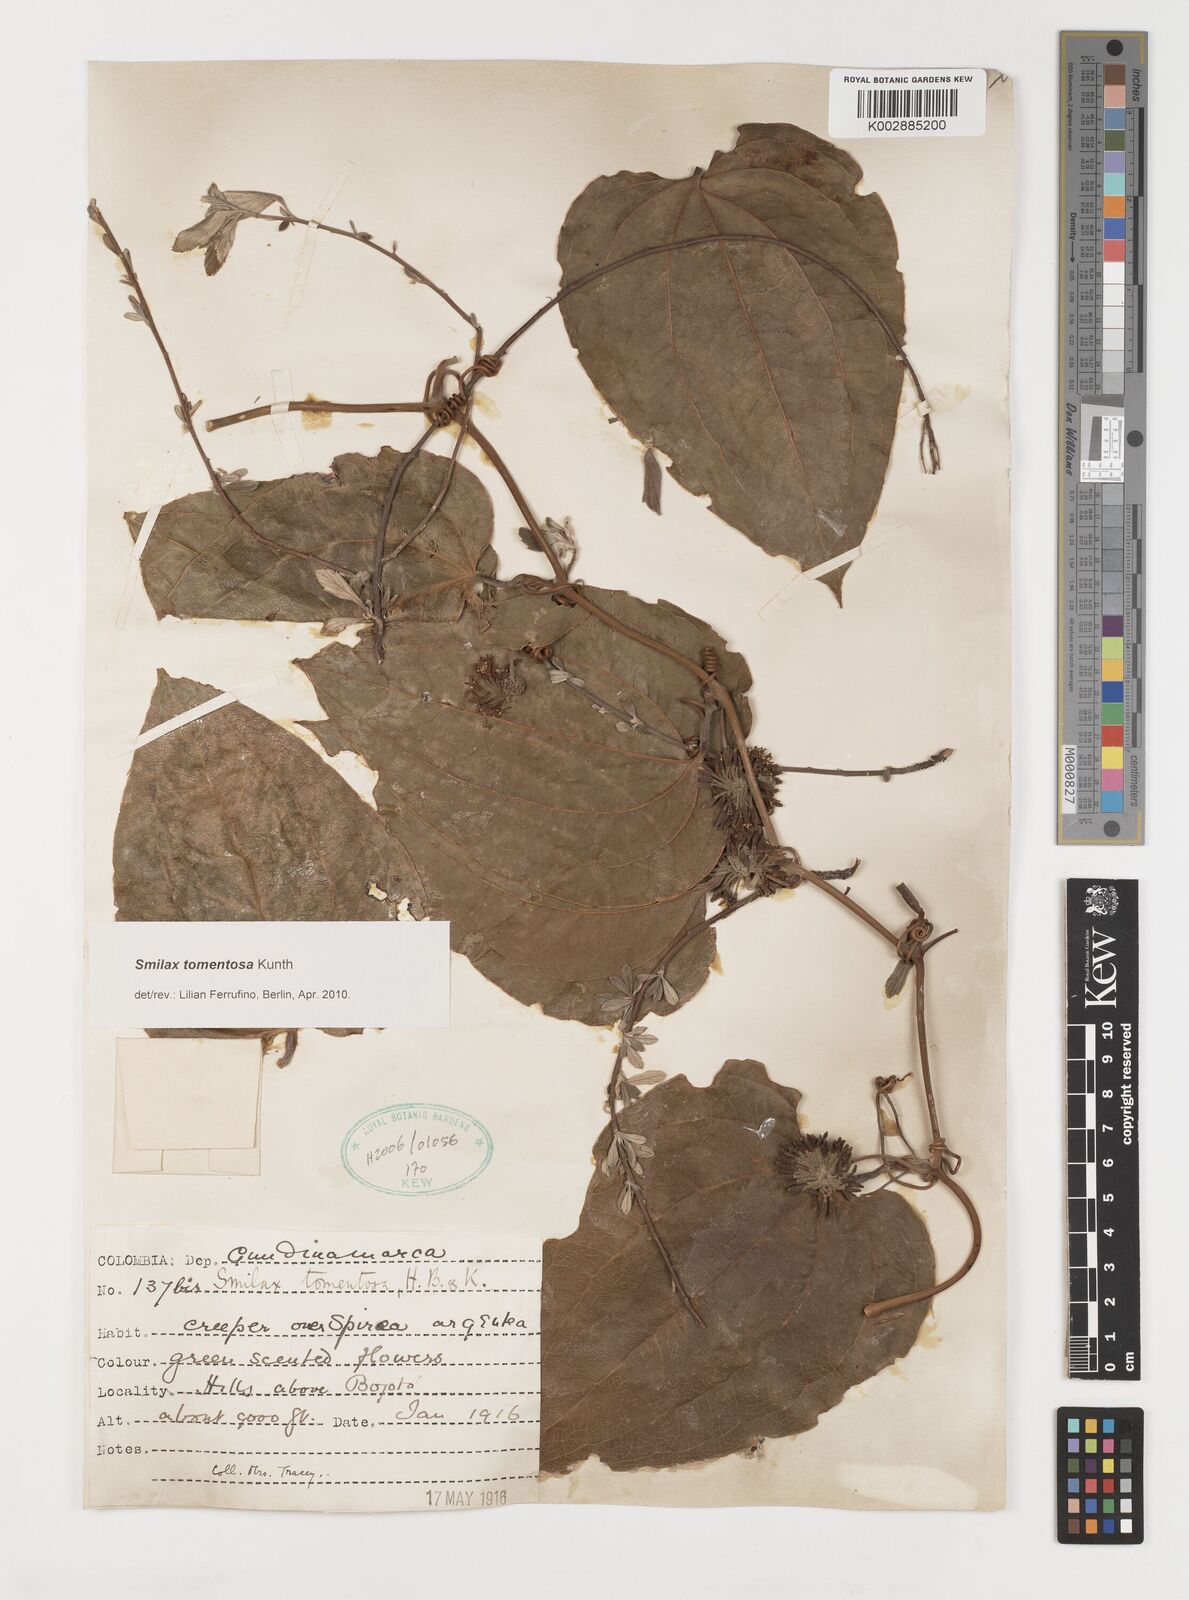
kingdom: Plantae
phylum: Tracheophyta
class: Liliopsida
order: Liliales
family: Smilacaceae
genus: Smilax
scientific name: Smilax tomentosa
